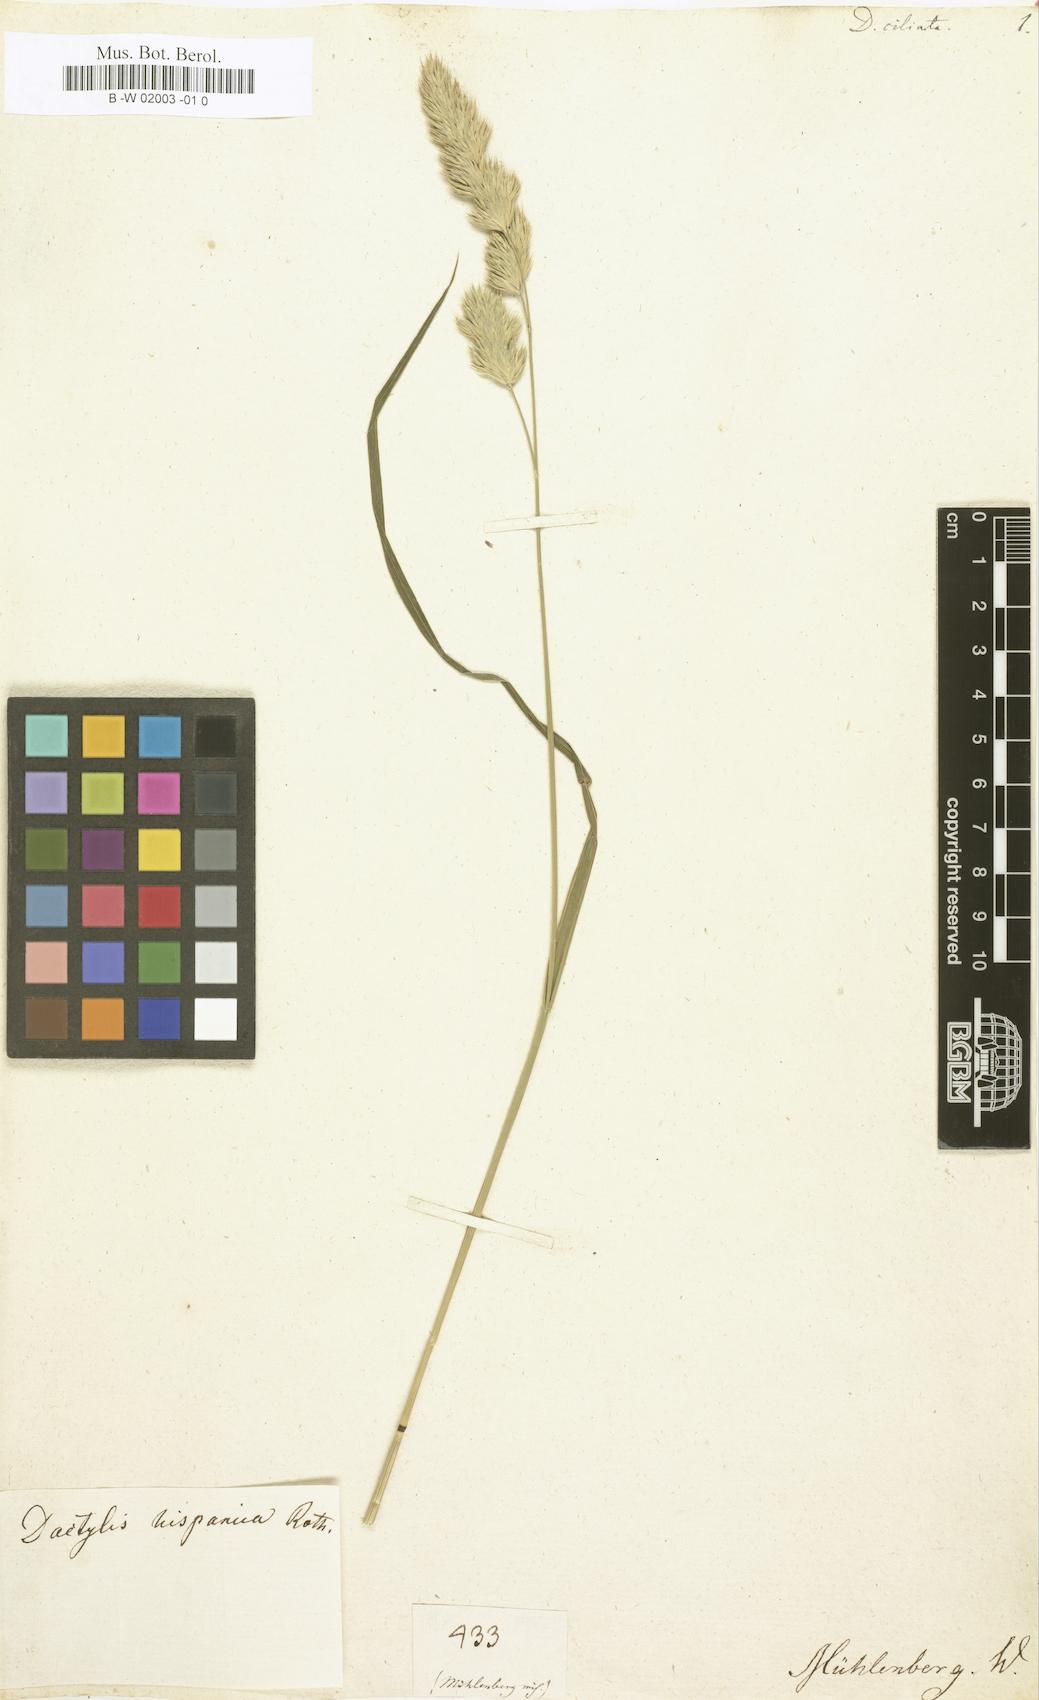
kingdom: Plantae
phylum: Tracheophyta
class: Liliopsida
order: Poales
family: Poaceae
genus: Dactylis
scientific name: Dactylis ciliata
